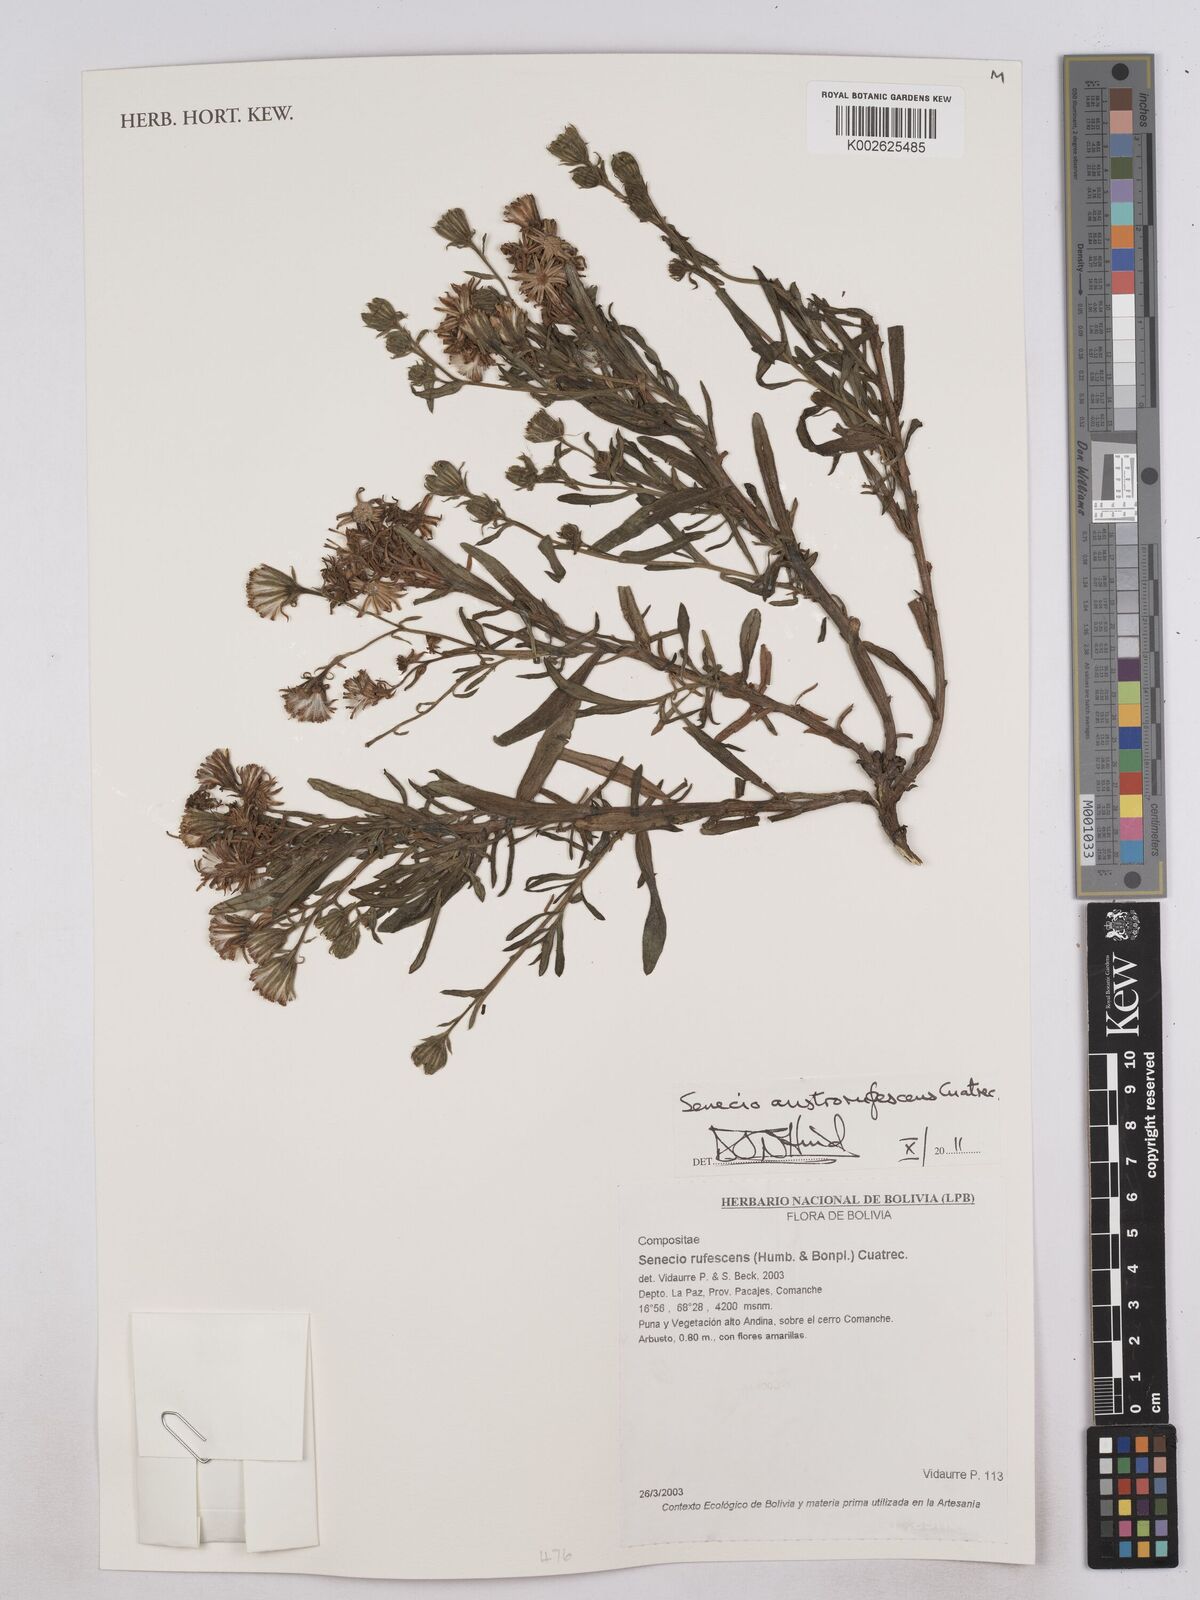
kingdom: Plantae
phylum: Tracheophyta
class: Magnoliopsida
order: Asterales
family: Asteraceae
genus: Culcitium
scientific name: Culcitium canescens
